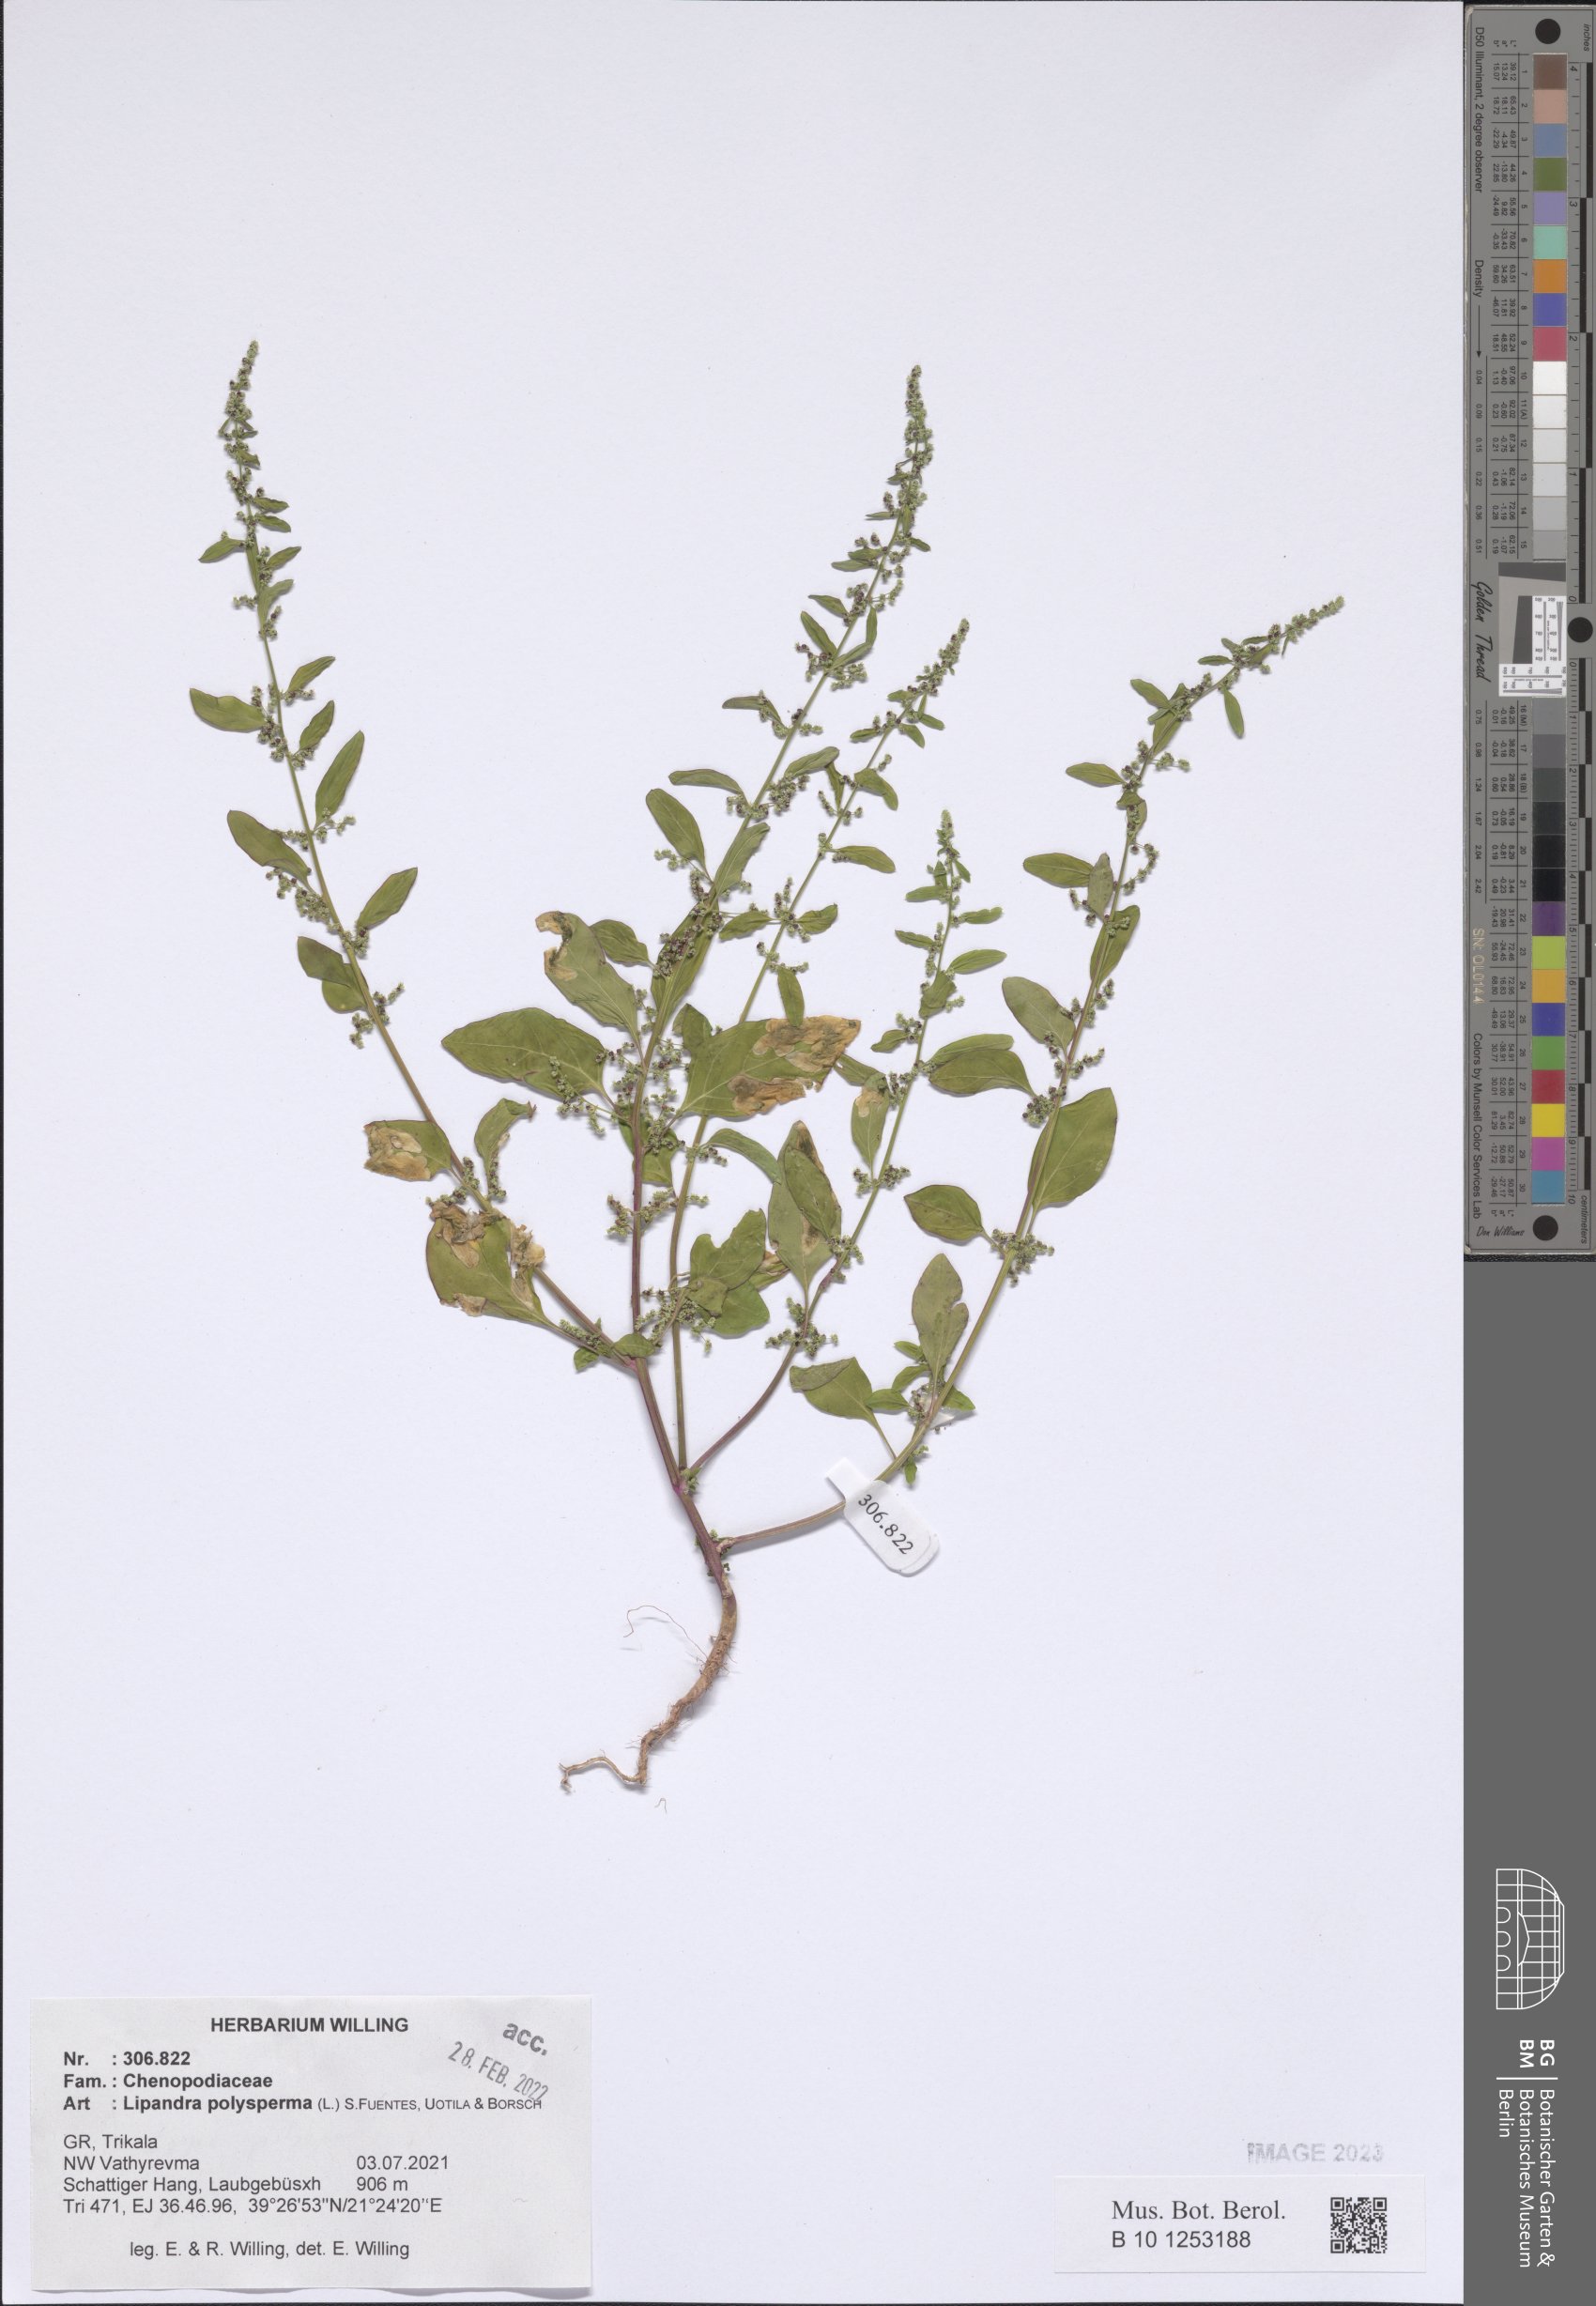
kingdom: Plantae
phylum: Tracheophyta
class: Magnoliopsida
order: Caryophyllales
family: Amaranthaceae
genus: Lipandra
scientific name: Lipandra polysperma
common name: Many-seed goosefoot
